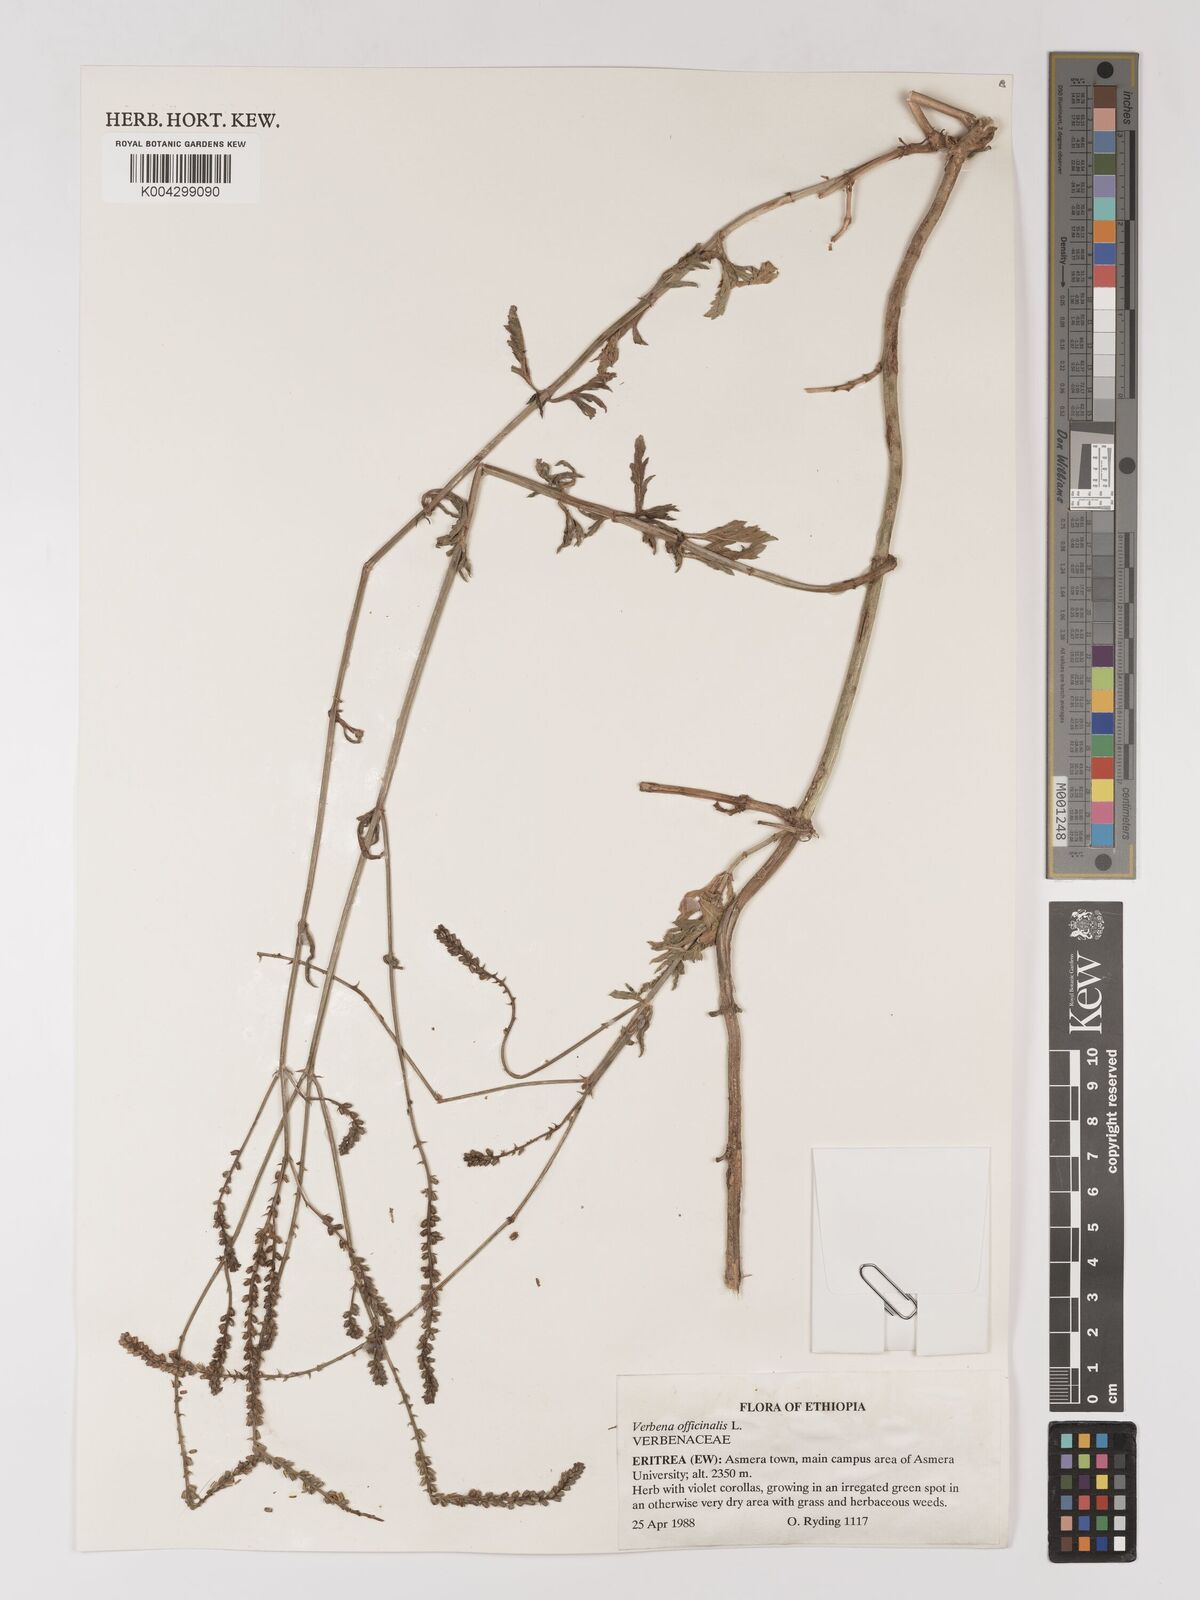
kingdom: Plantae
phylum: Tracheophyta
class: Magnoliopsida
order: Lamiales
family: Verbenaceae
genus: Verbena
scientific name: Verbena officinalis
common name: Vervain
